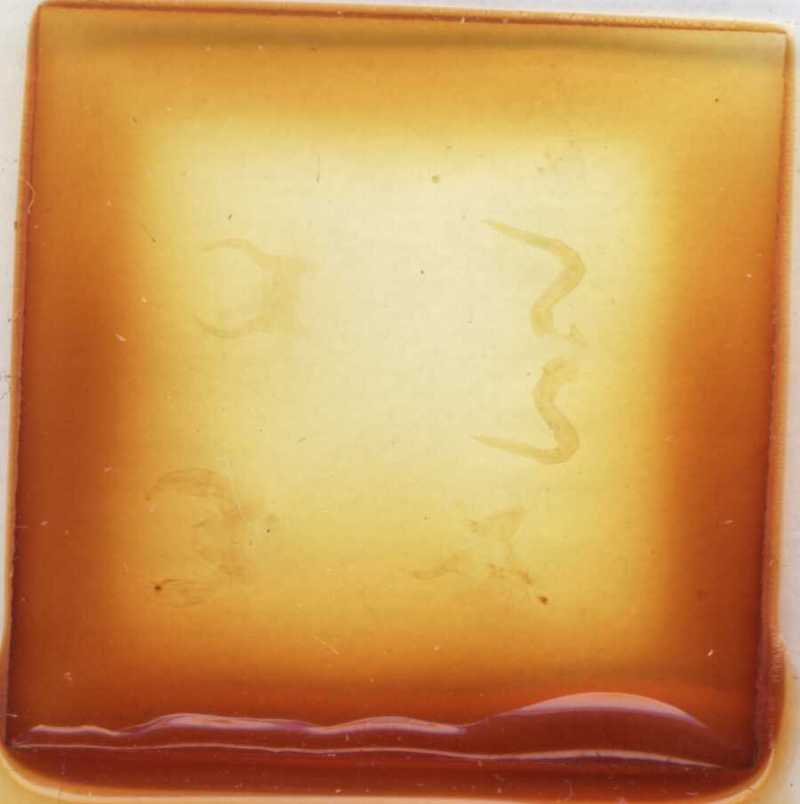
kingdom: Animalia
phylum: Arthropoda
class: Diplopoda
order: Glomerida
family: Glomeridae
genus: Annameris
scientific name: Annameris curvimana
